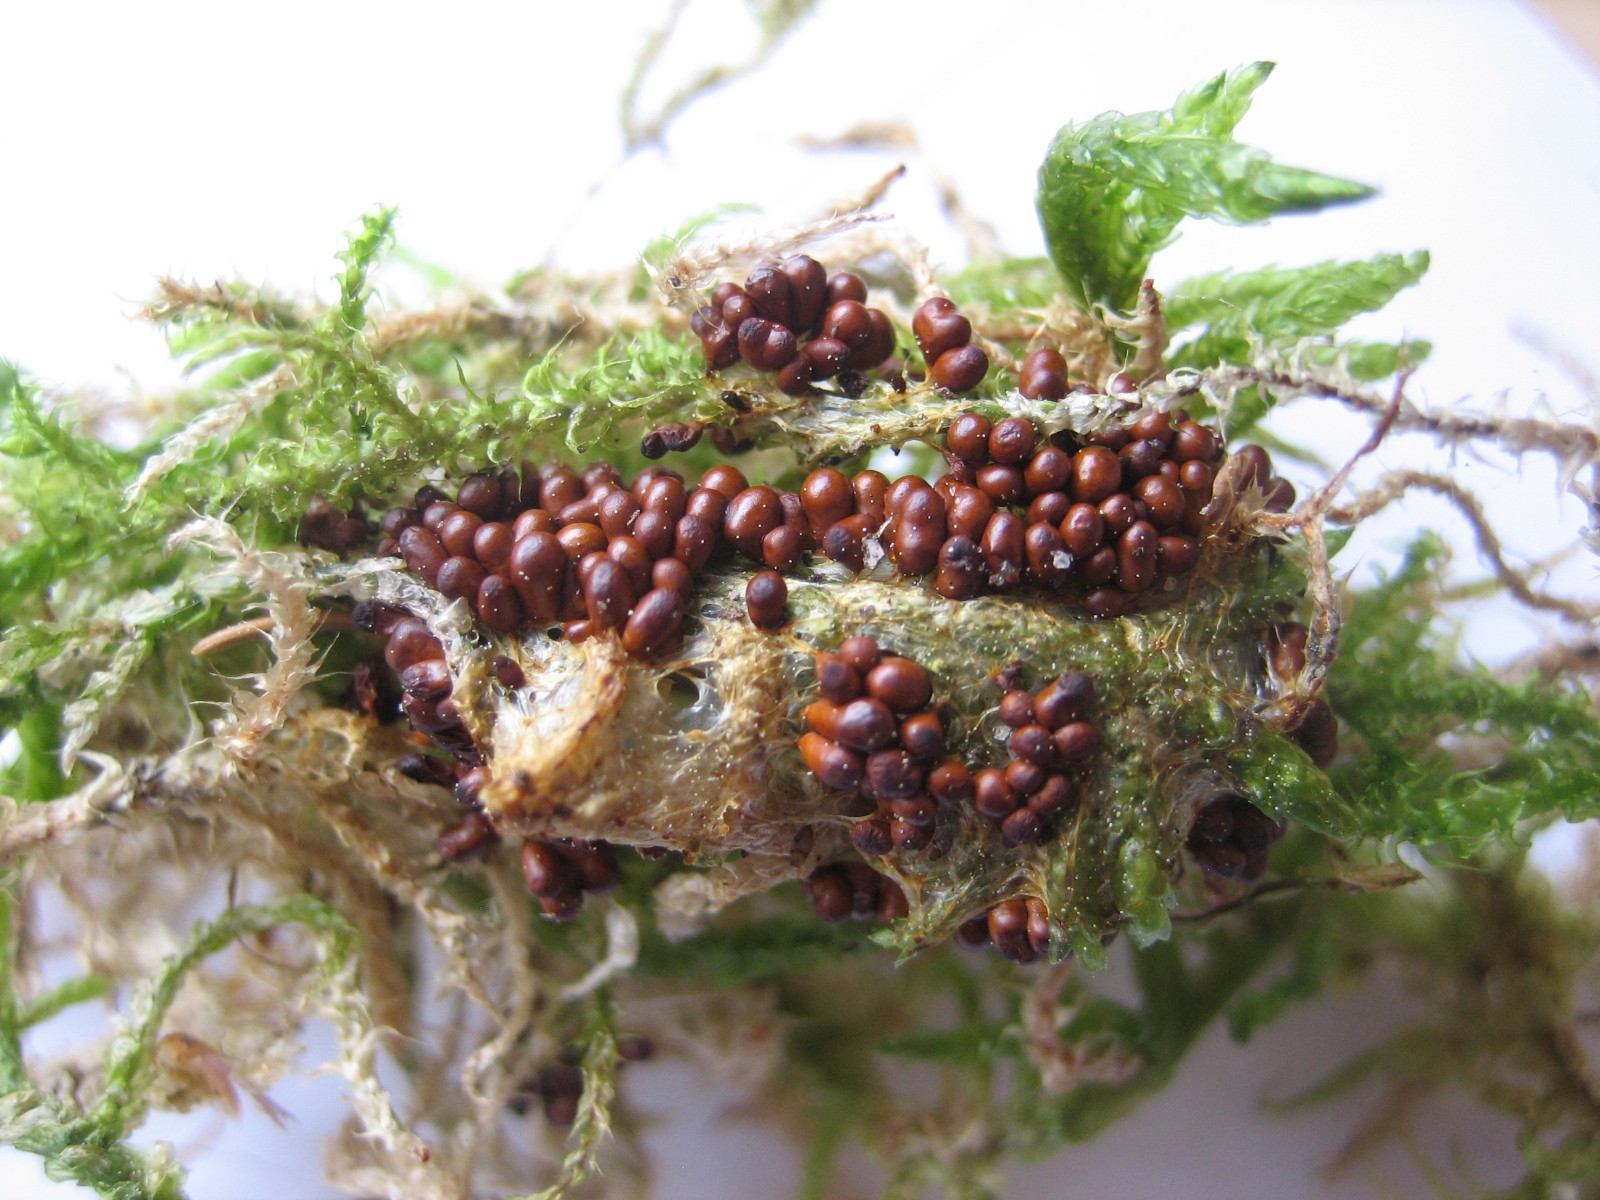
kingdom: Protozoa
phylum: Mycetozoa
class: Myxomycetes
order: Physarales
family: Physaraceae
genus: Leocarpus
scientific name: Leocarpus fragilis
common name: poleret glatfrø
